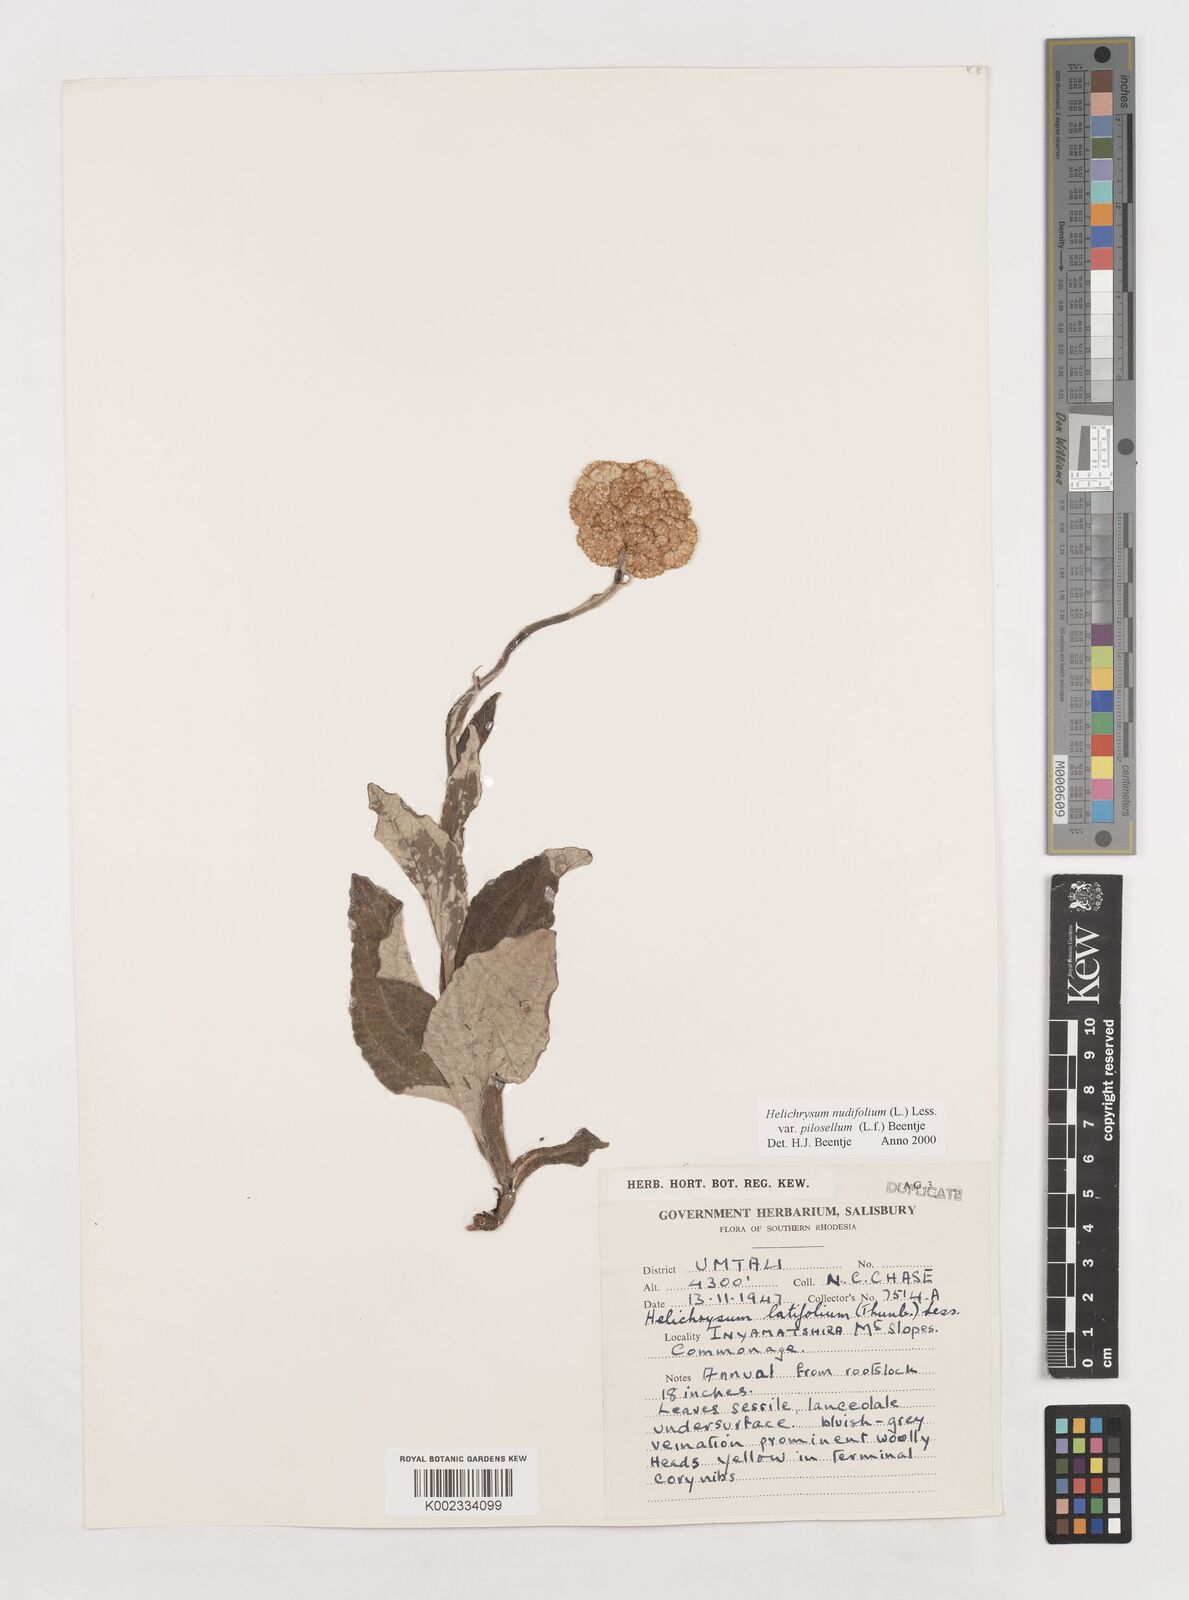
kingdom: Plantae
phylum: Tracheophyta
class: Magnoliopsida
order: Asterales
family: Asteraceae
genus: Helichrysum
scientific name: Helichrysum nudifolium
